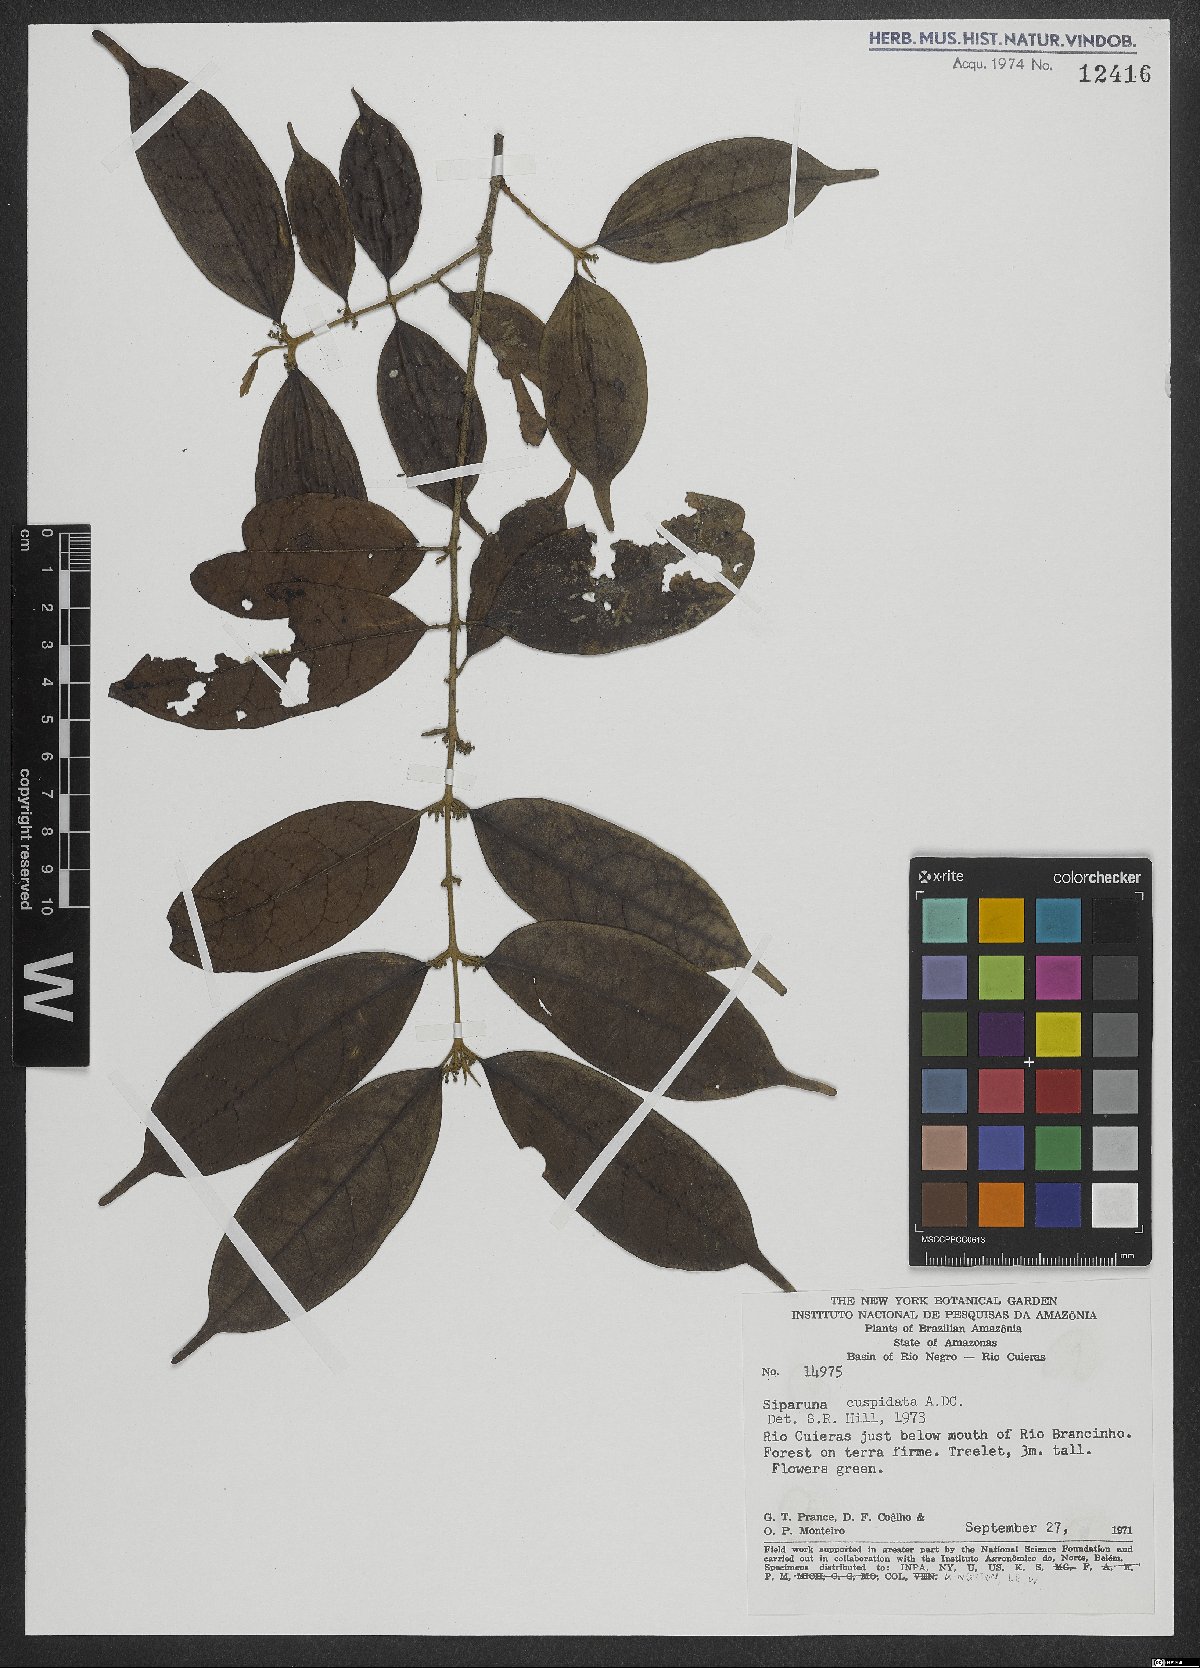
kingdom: Plantae
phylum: Tracheophyta
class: Magnoliopsida
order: Laurales
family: Siparunaceae
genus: Siparuna
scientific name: Siparuna cuspidata
